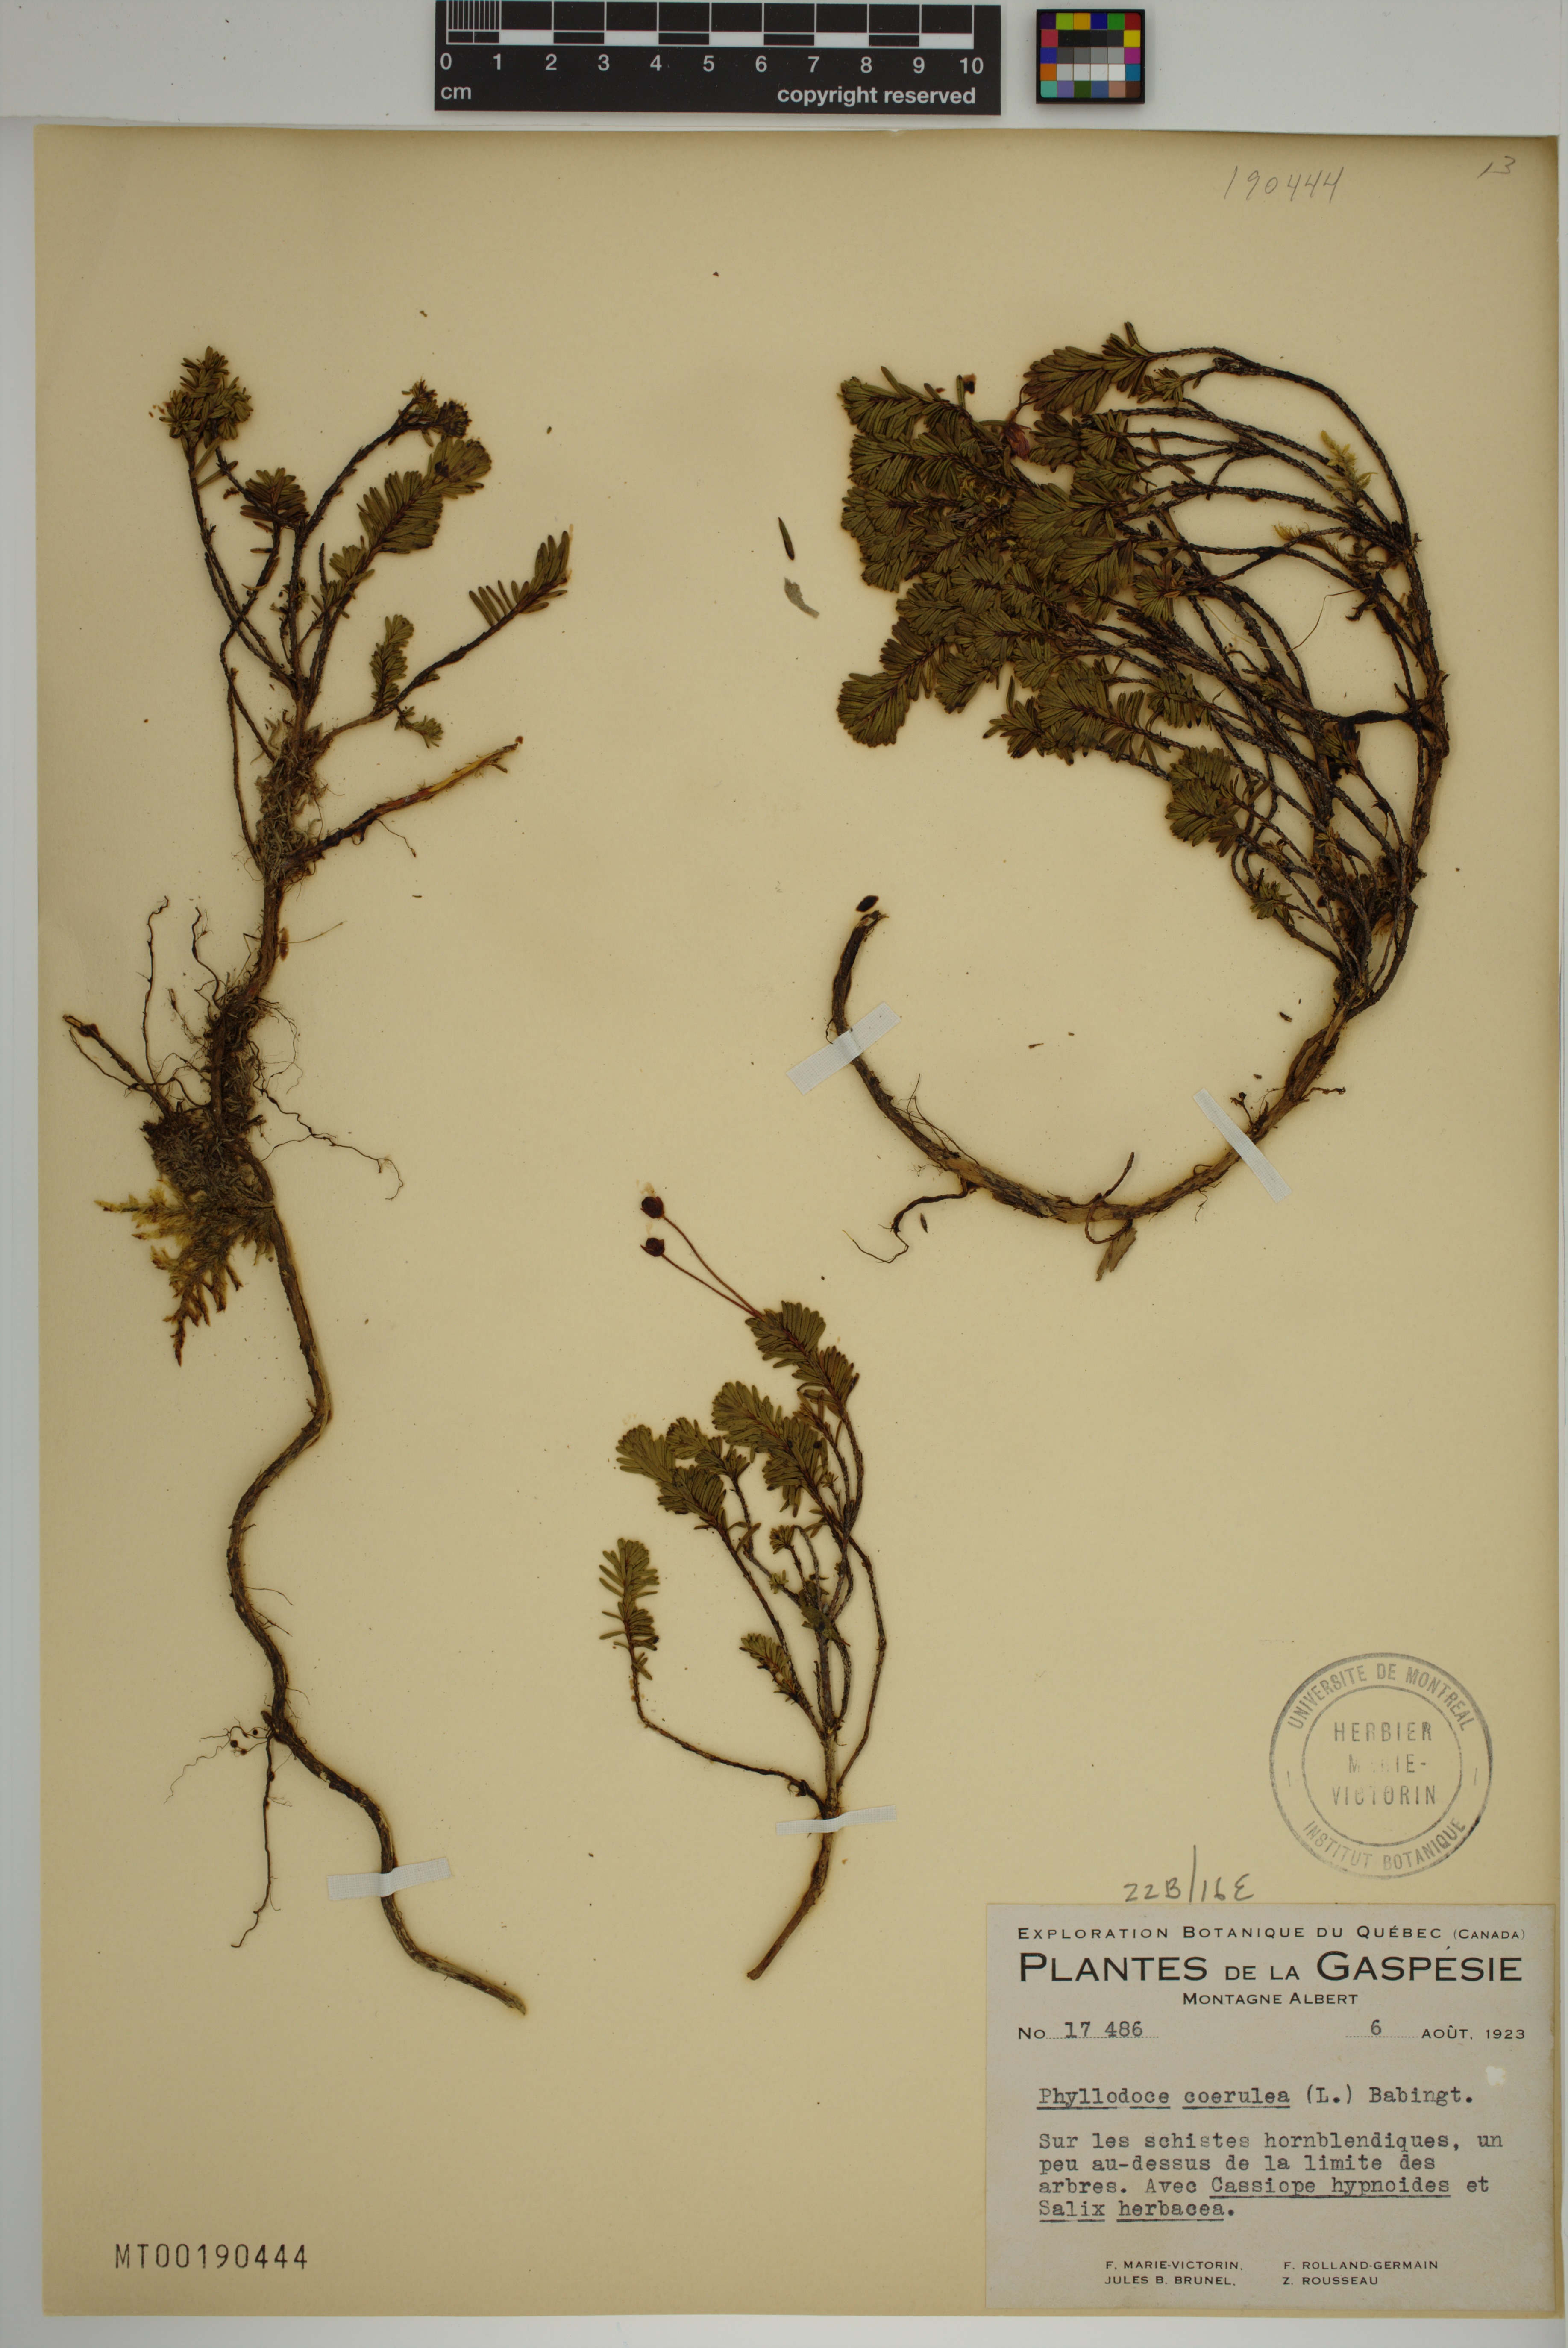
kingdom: Plantae
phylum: Tracheophyta
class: Magnoliopsida
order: Ericales
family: Ericaceae
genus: Phyllodoce
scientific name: Phyllodoce caerulea
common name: Blue heath
